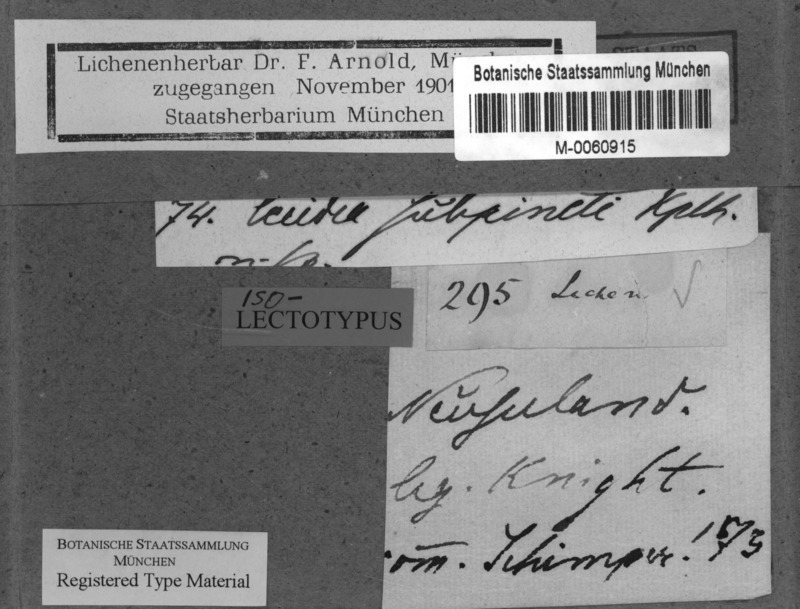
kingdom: Fungi
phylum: Ascomycota
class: Lecanoromycetes
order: Lecanorales
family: Malmideaceae
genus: Australidea
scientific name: Australidea canorufescens
